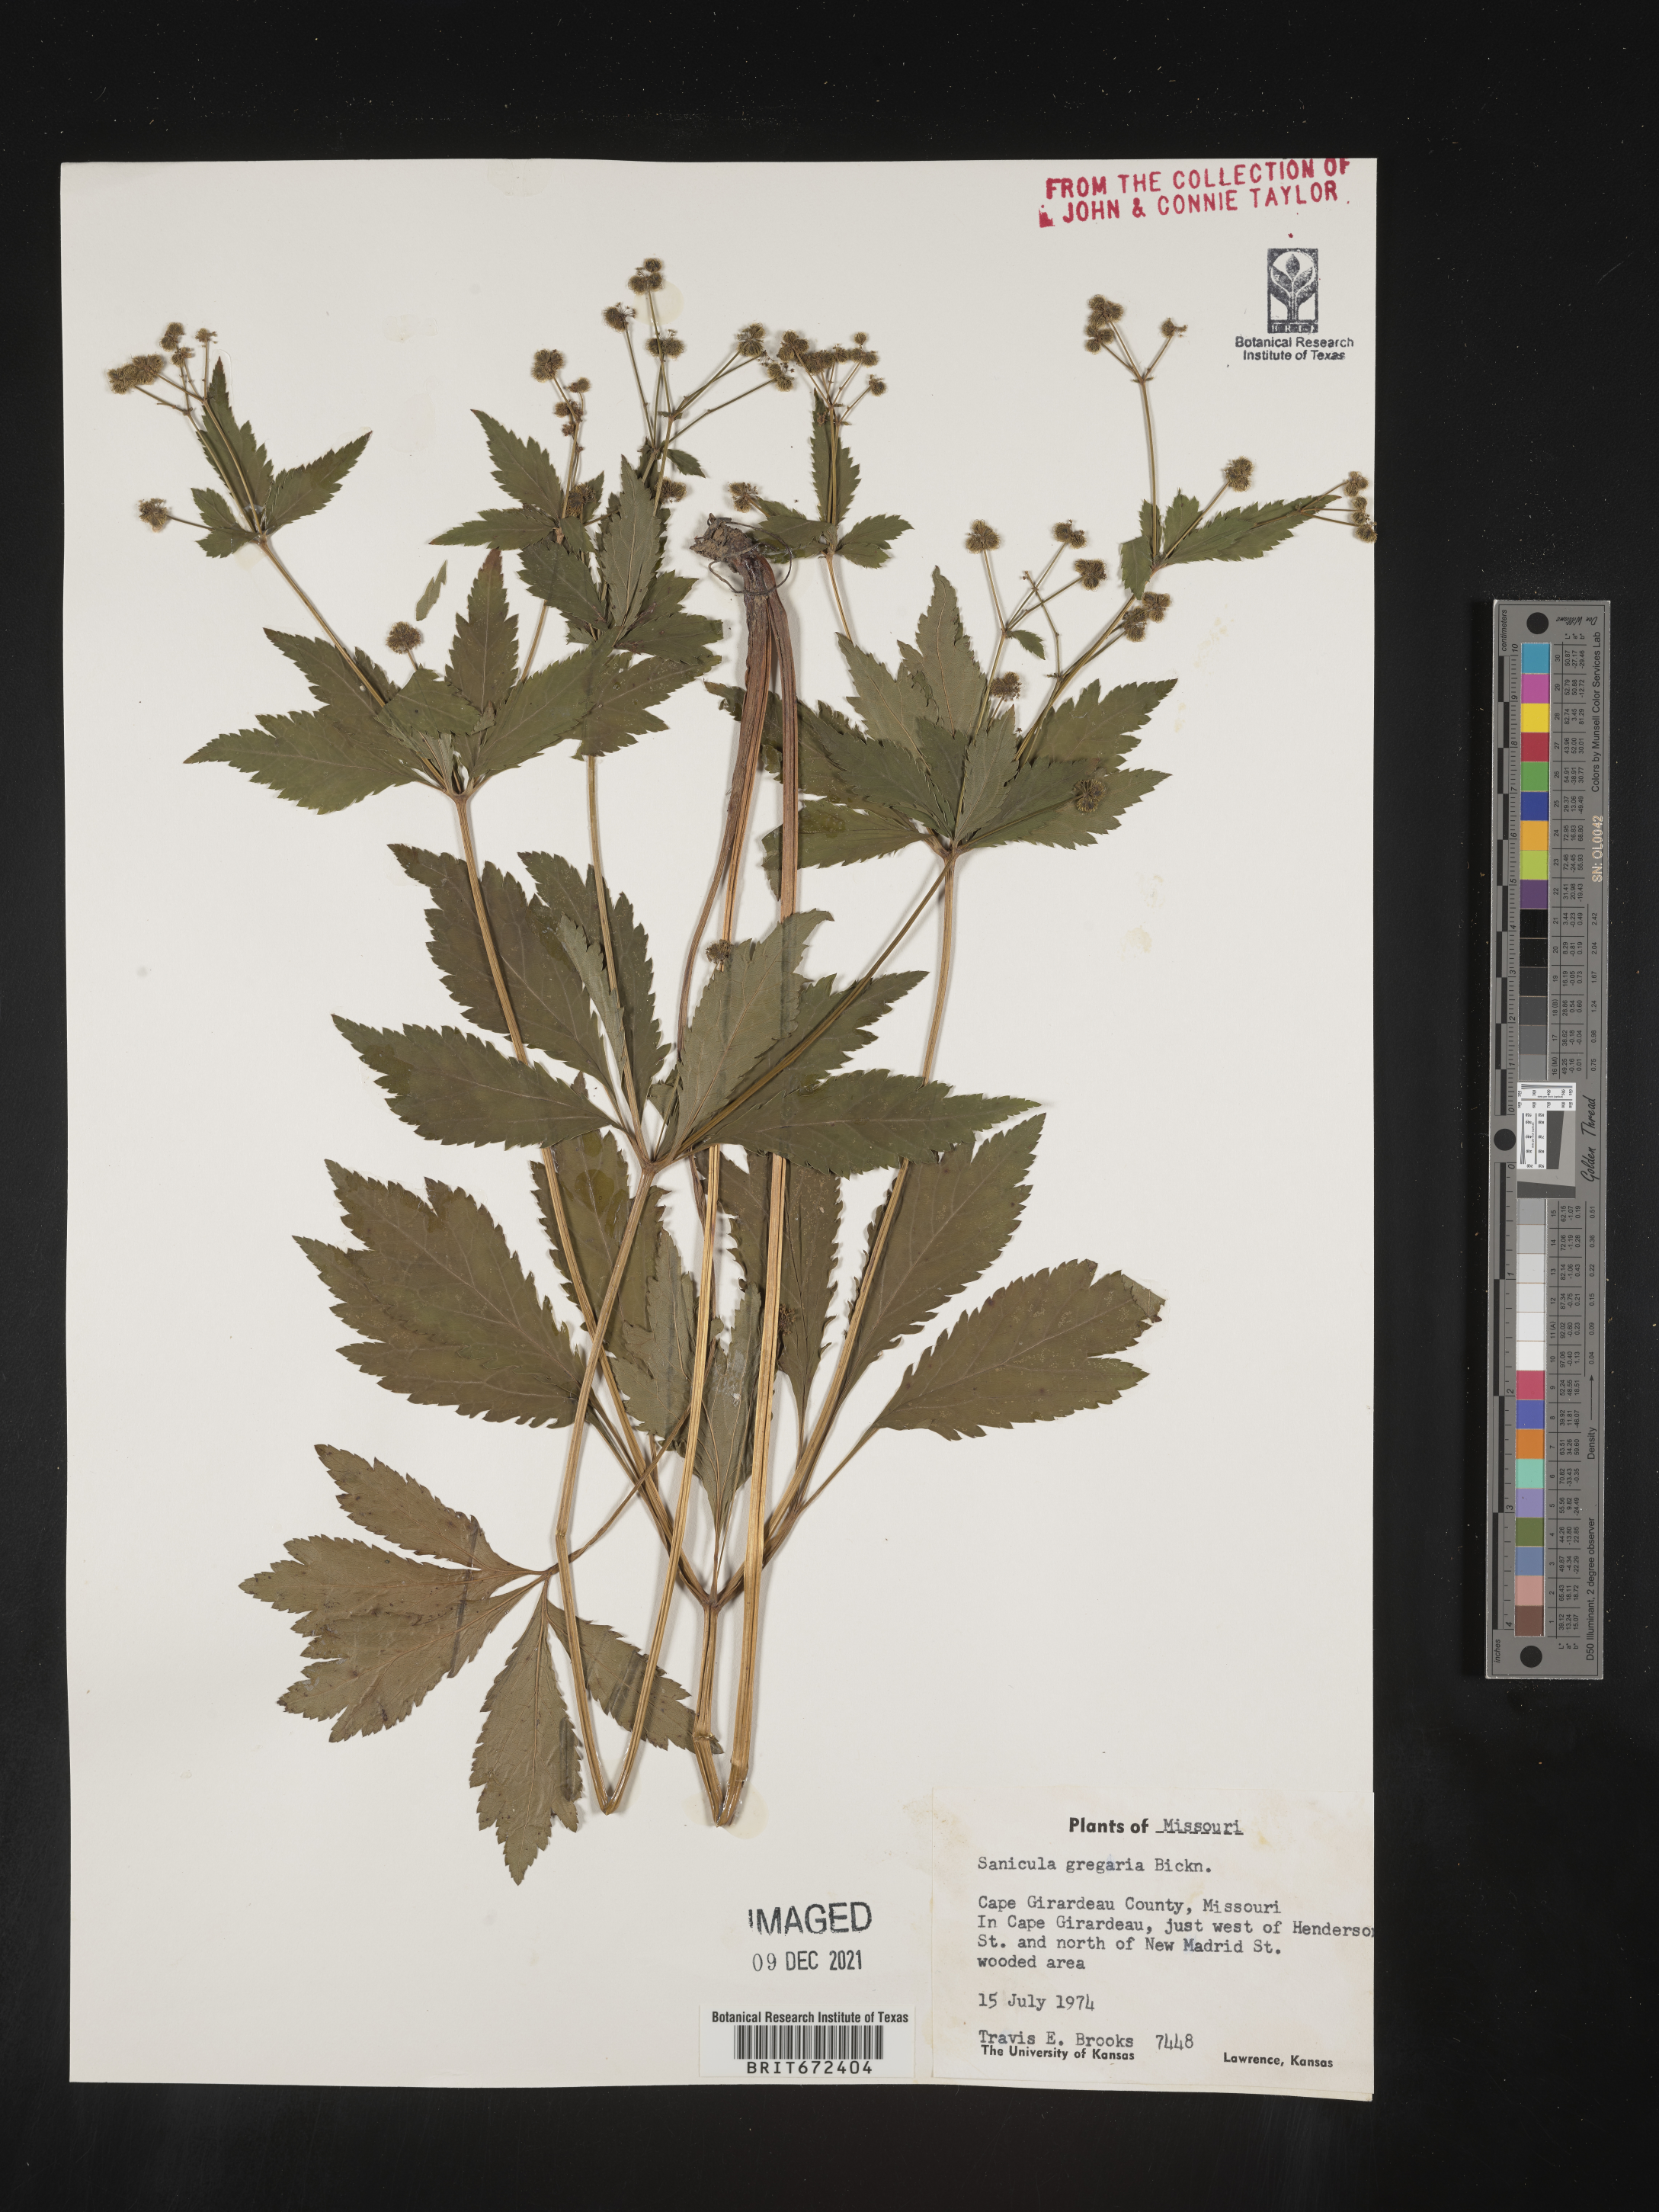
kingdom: Plantae
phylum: Tracheophyta
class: Magnoliopsida
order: Apiales
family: Apiaceae
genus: Sanicula
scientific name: Sanicula odorata
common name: Cluster sanicle
